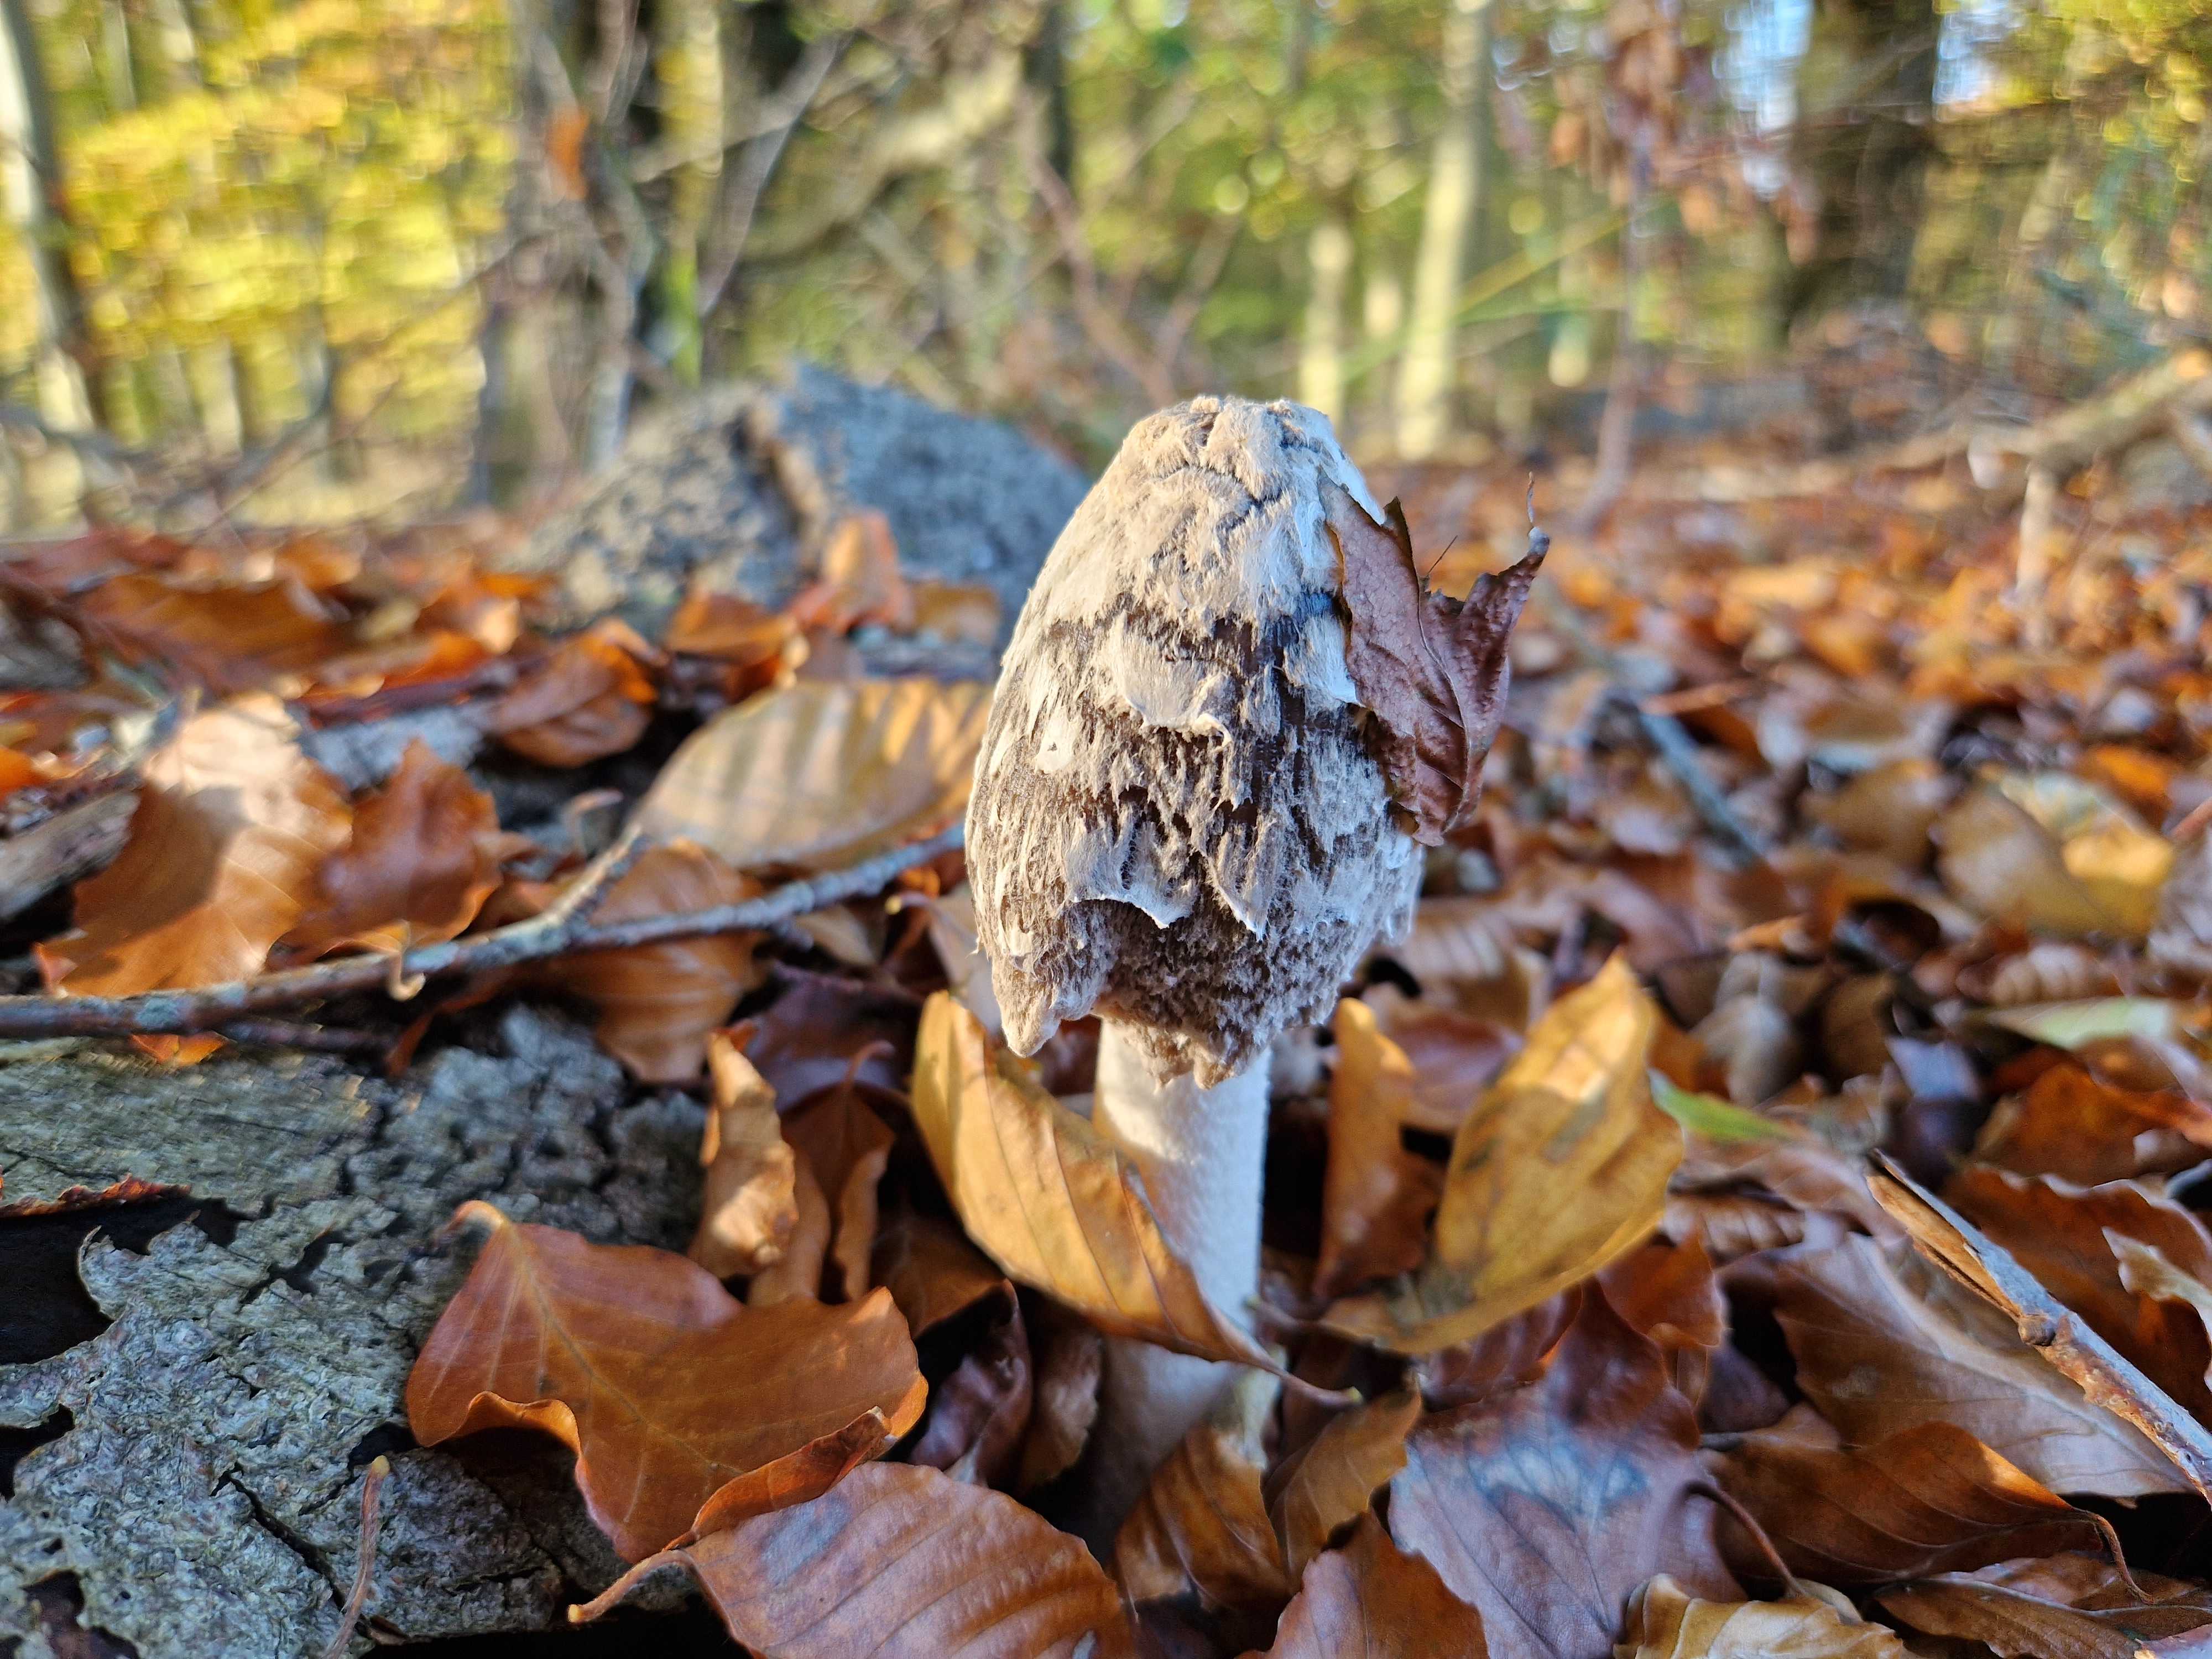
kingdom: Fungi
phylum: Basidiomycota
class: Agaricomycetes
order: Agaricales
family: Psathyrellaceae
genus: Coprinopsis
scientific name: Coprinopsis picacea
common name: skade-blækhat
